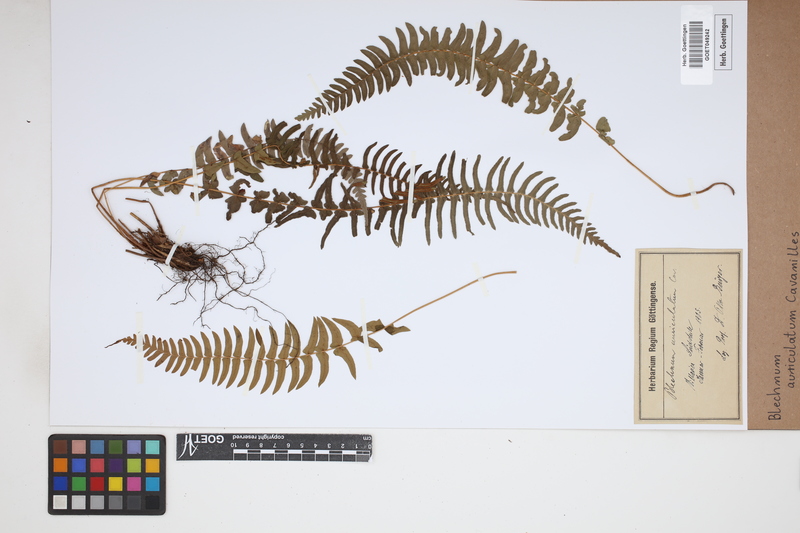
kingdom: Plantae
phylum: Tracheophyta
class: Polypodiopsida
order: Polypodiales
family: Blechnaceae
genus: Blechnum
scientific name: Blechnum auriculatum
